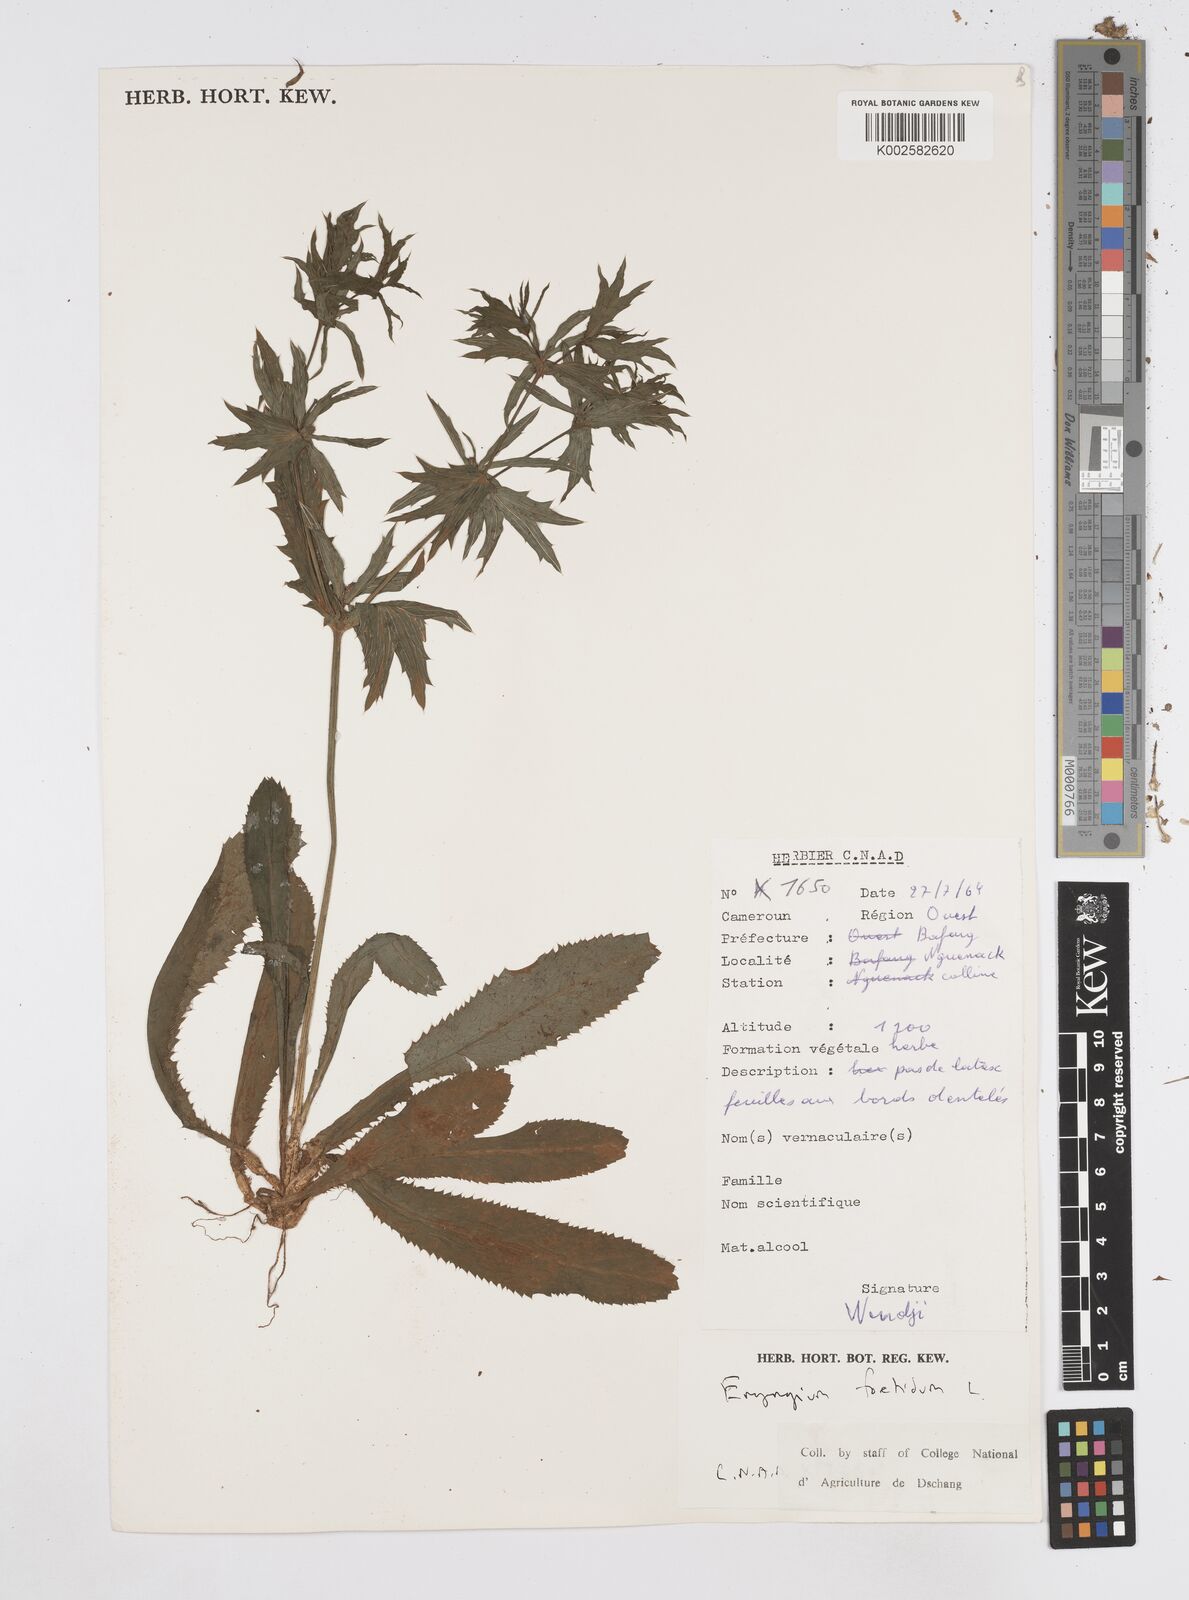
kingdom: Plantae
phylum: Tracheophyta
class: Magnoliopsida
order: Apiales
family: Apiaceae
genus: Eryngium
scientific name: Eryngium foetidum
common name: Fitweed
